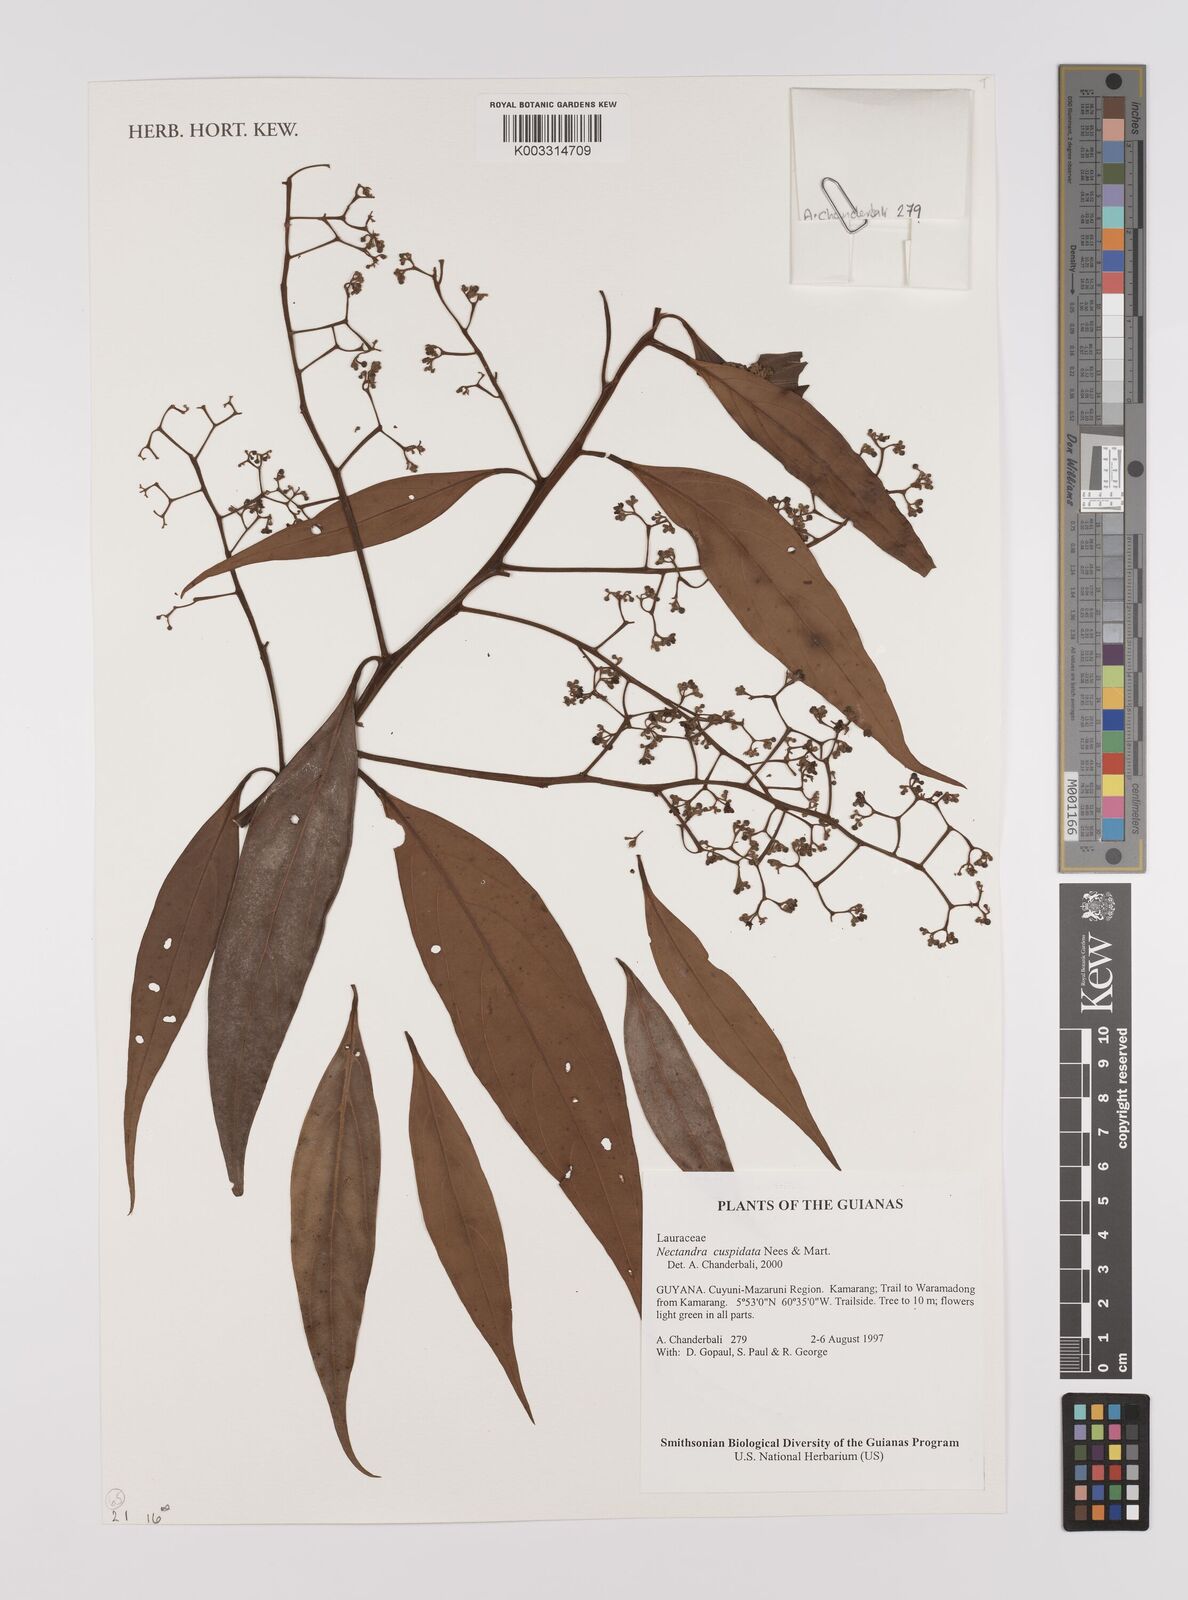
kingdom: Plantae
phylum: Tracheophyta
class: Magnoliopsida
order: Laurales
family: Lauraceae
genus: Nectandra
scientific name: Nectandra cuspidata
